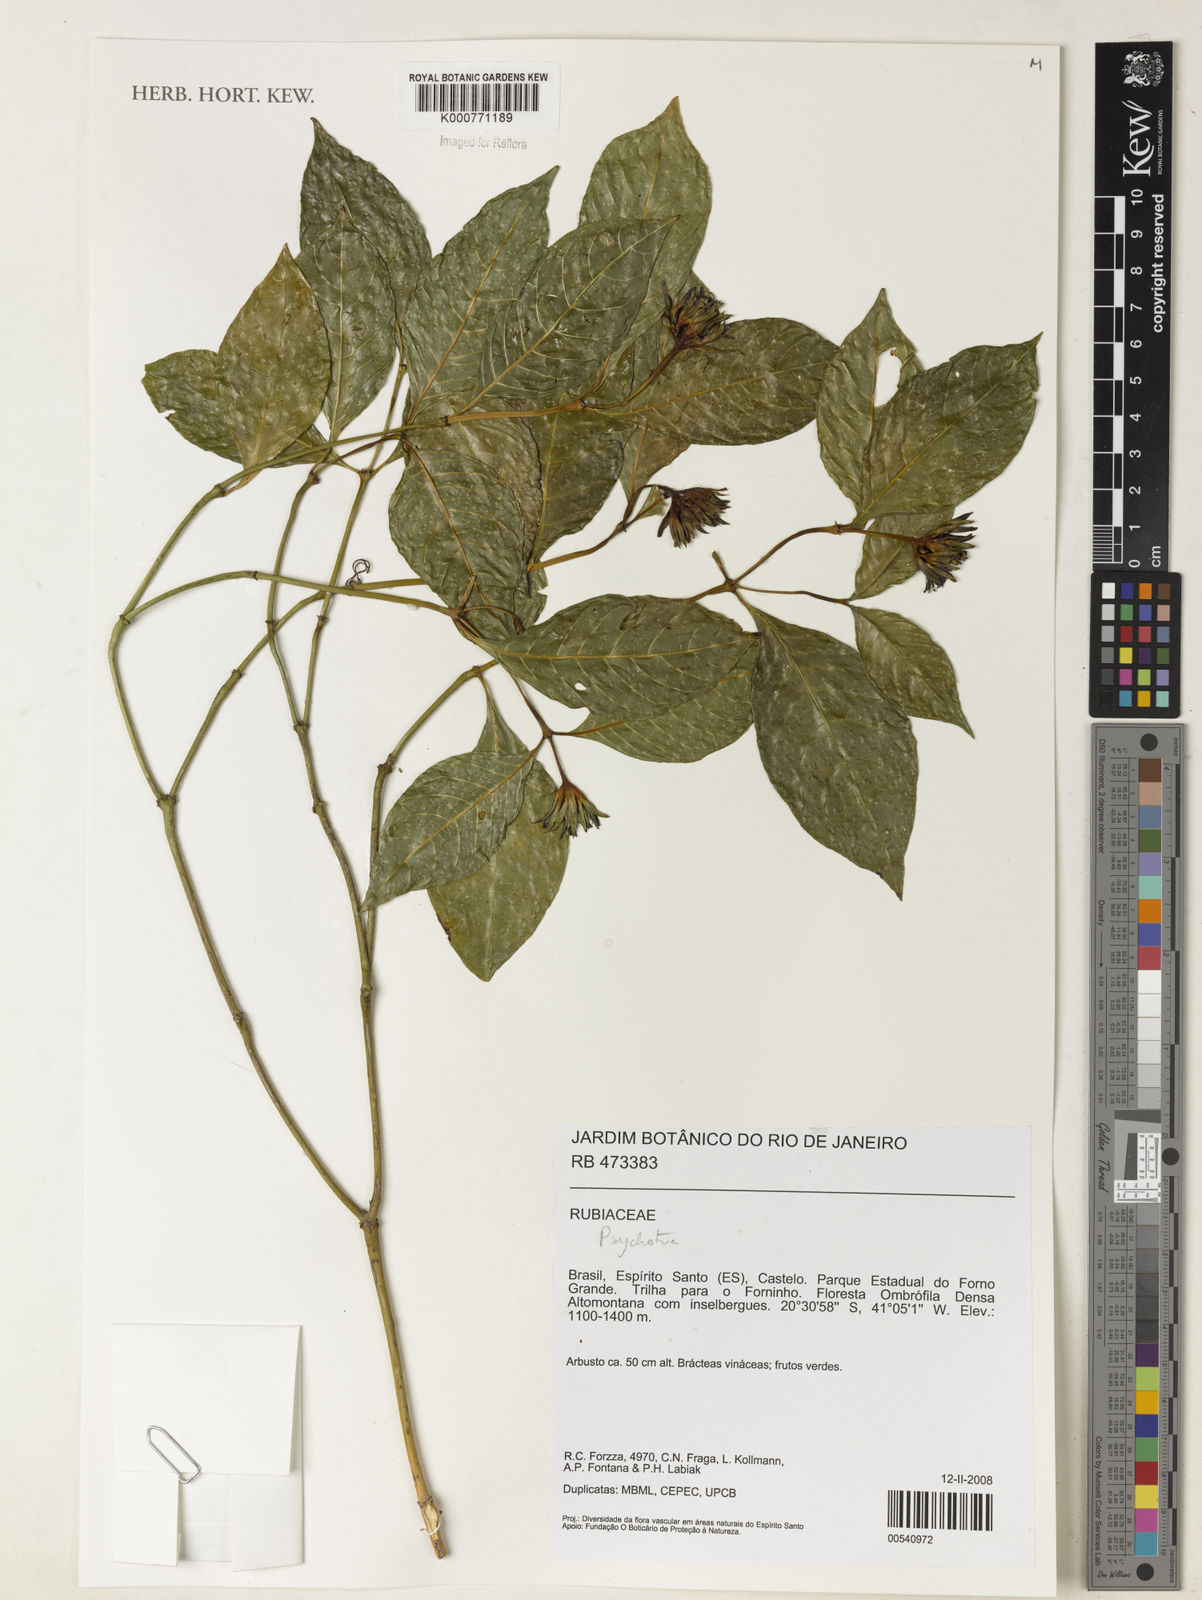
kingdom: Plantae
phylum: Tracheophyta
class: Magnoliopsida
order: Gentianales
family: Rubiaceae
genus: Psychotria
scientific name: Psychotria
